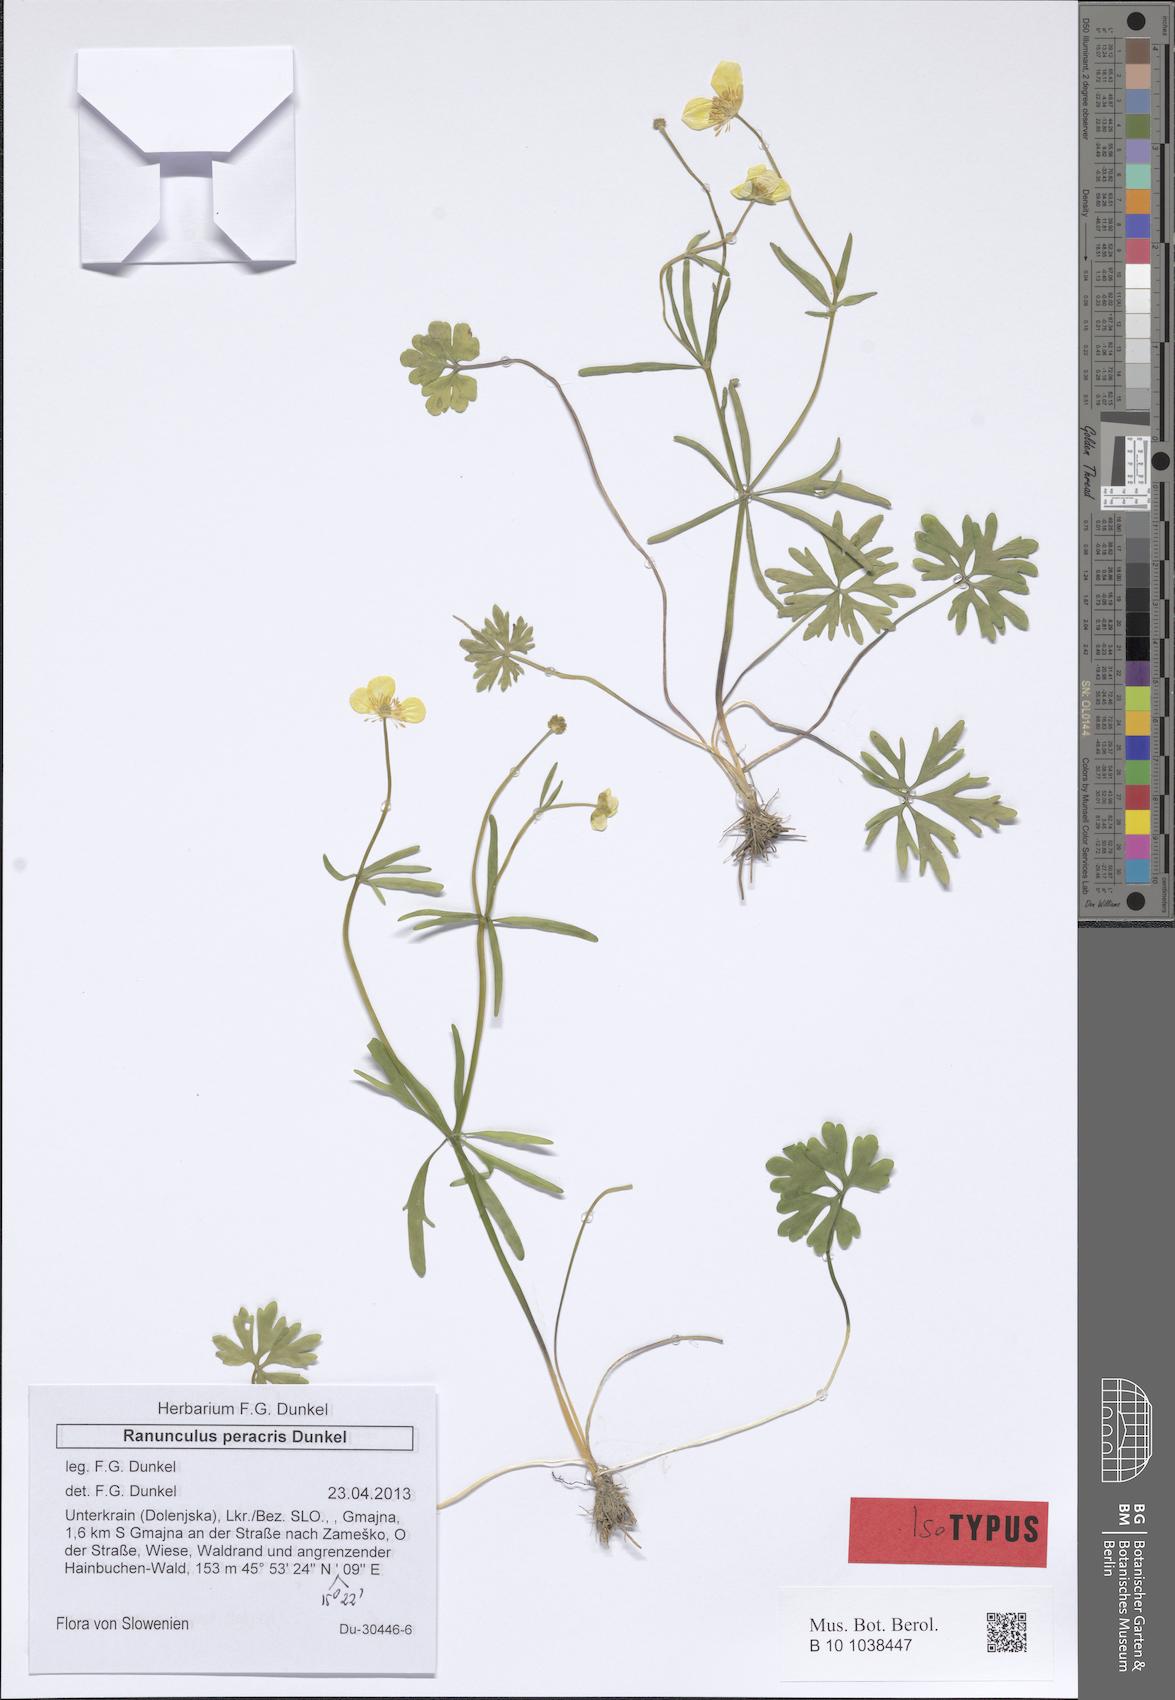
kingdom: Plantae
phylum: Tracheophyta
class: Magnoliopsida
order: Ranunculales
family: Ranunculaceae
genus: Ranunculus
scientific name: Ranunculus notabilis
